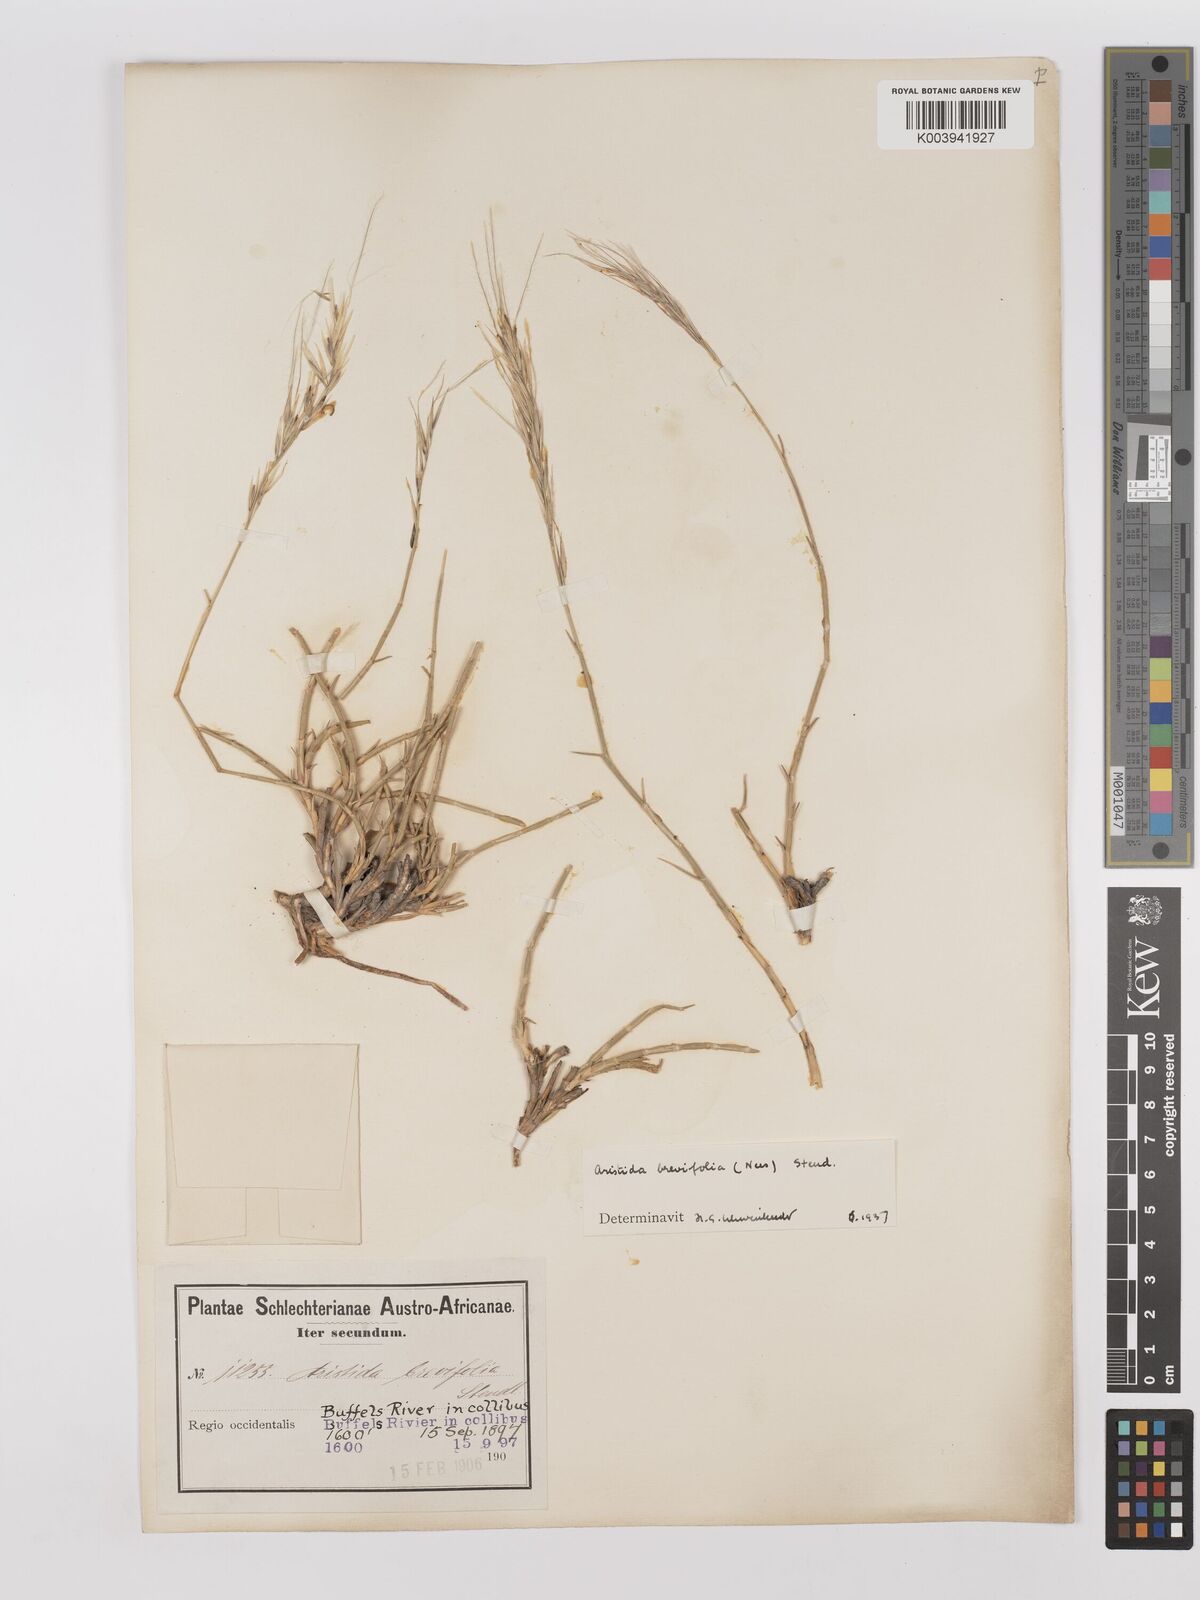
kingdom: Plantae
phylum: Tracheophyta
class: Liliopsida
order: Poales
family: Poaceae
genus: Stipagrostis
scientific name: Stipagrostis brevifolia
